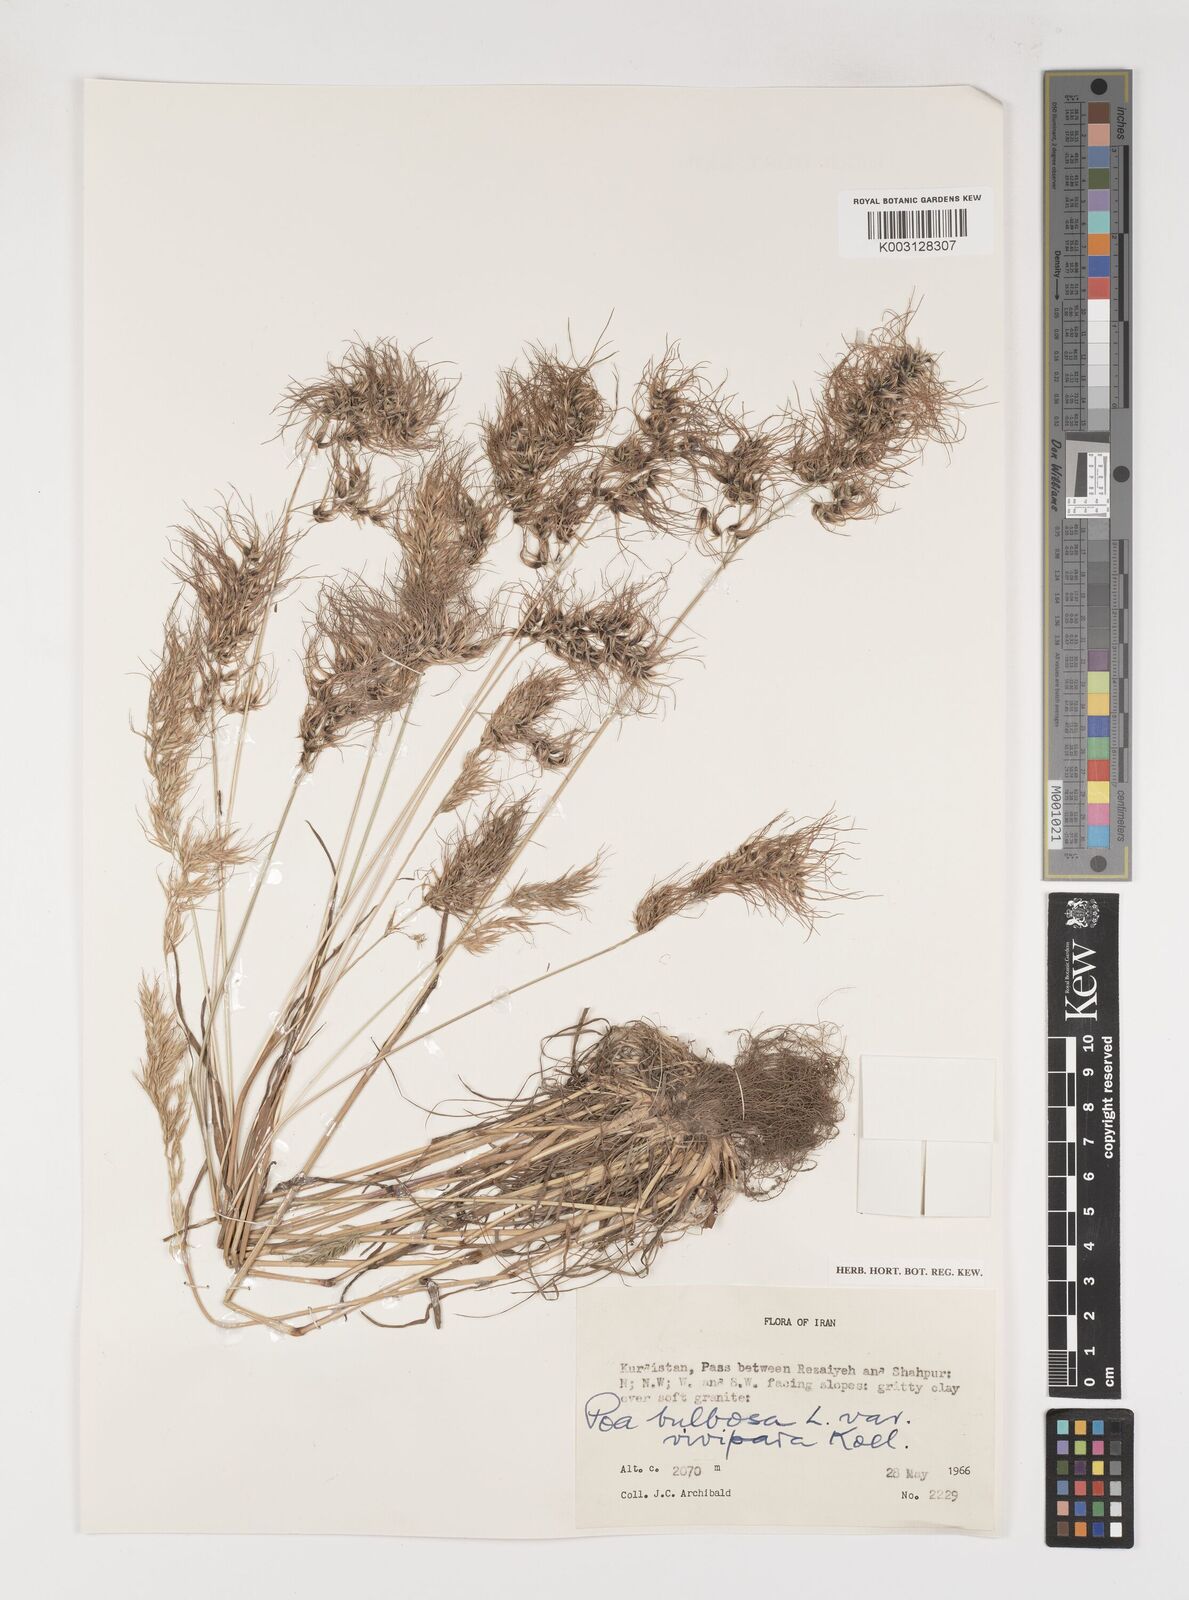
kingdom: Plantae
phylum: Tracheophyta
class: Liliopsida
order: Poales
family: Poaceae
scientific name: Poaceae
